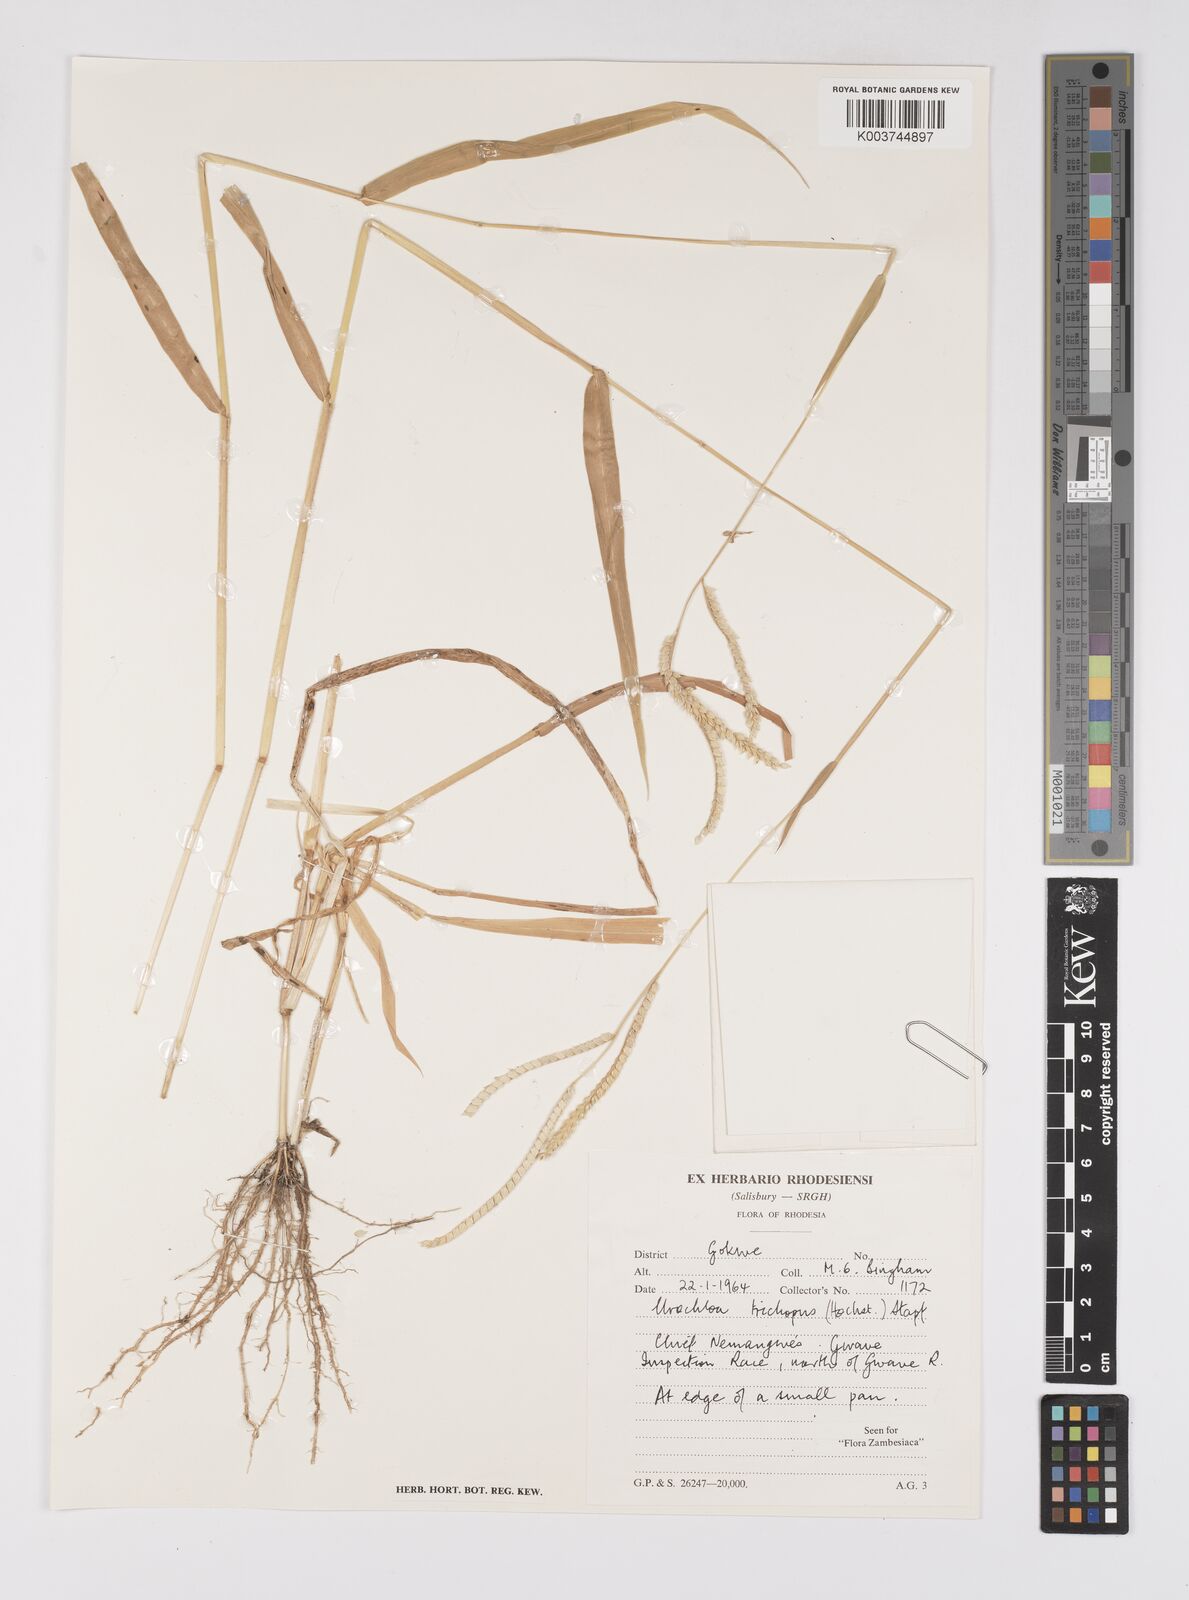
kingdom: Plantae
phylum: Tracheophyta
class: Liliopsida
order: Poales
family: Poaceae
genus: Urochloa
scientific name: Urochloa trichopus
